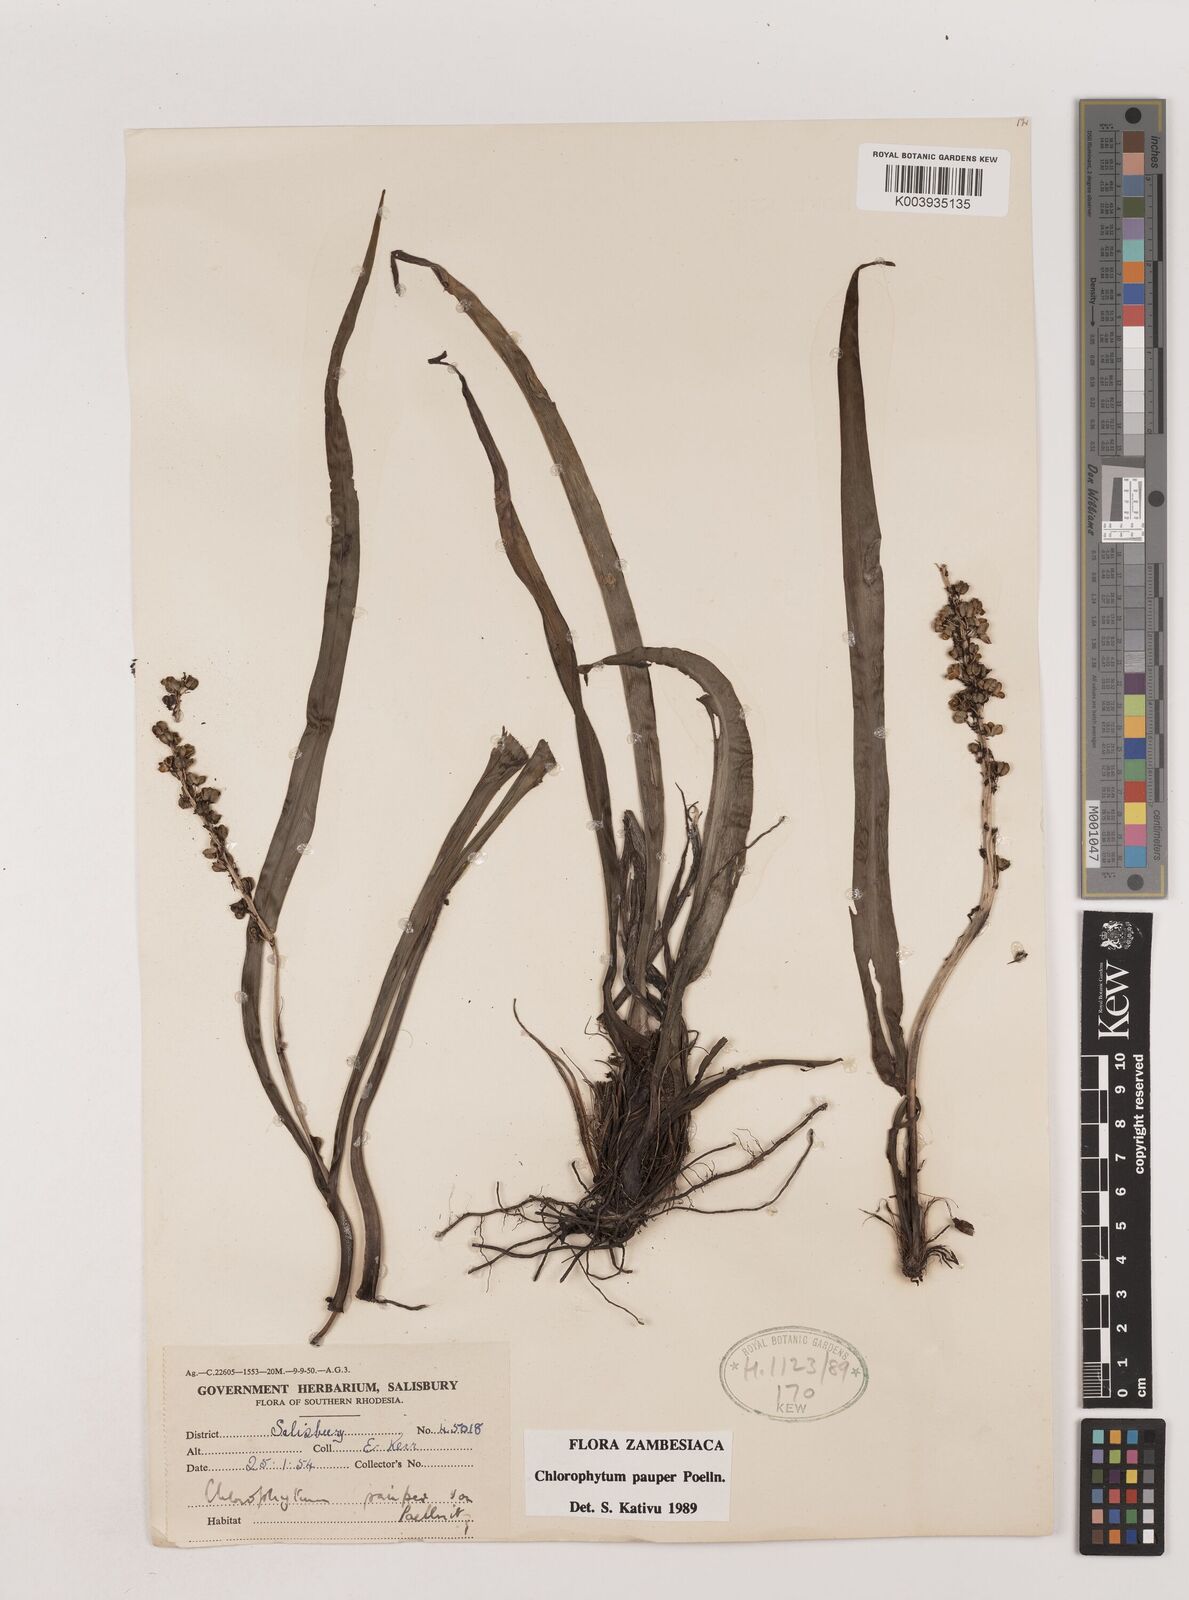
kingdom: Plantae
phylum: Tracheophyta
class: Liliopsida
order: Asparagales
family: Asparagaceae
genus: Chlorophytum
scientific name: Chlorophytum pauper
